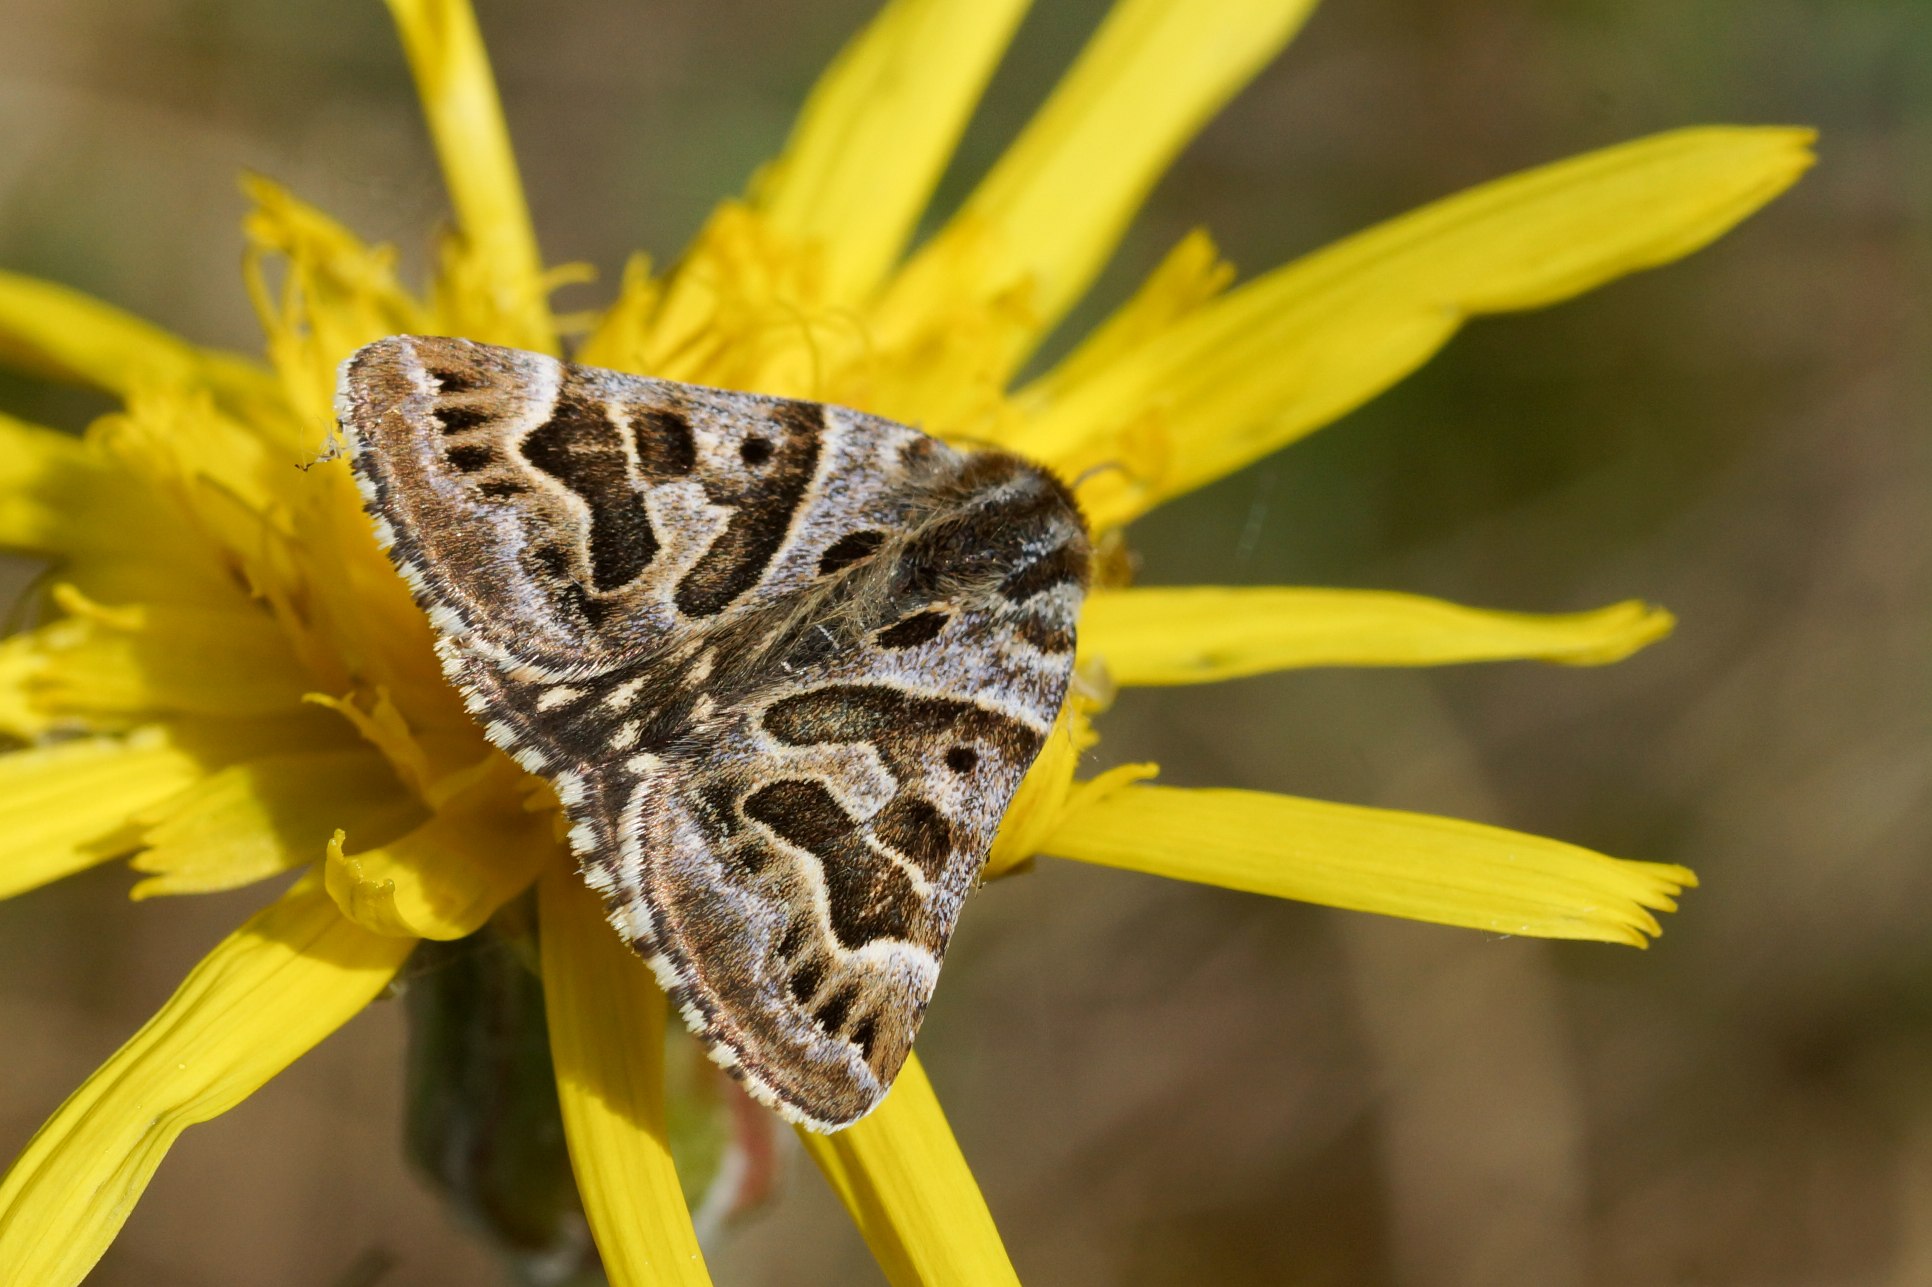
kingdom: Animalia
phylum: Arthropoda
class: Insecta
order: Lepidoptera
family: Erebidae
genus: Callistege
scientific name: Callistege mi
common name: Marmoreret kløverugle
